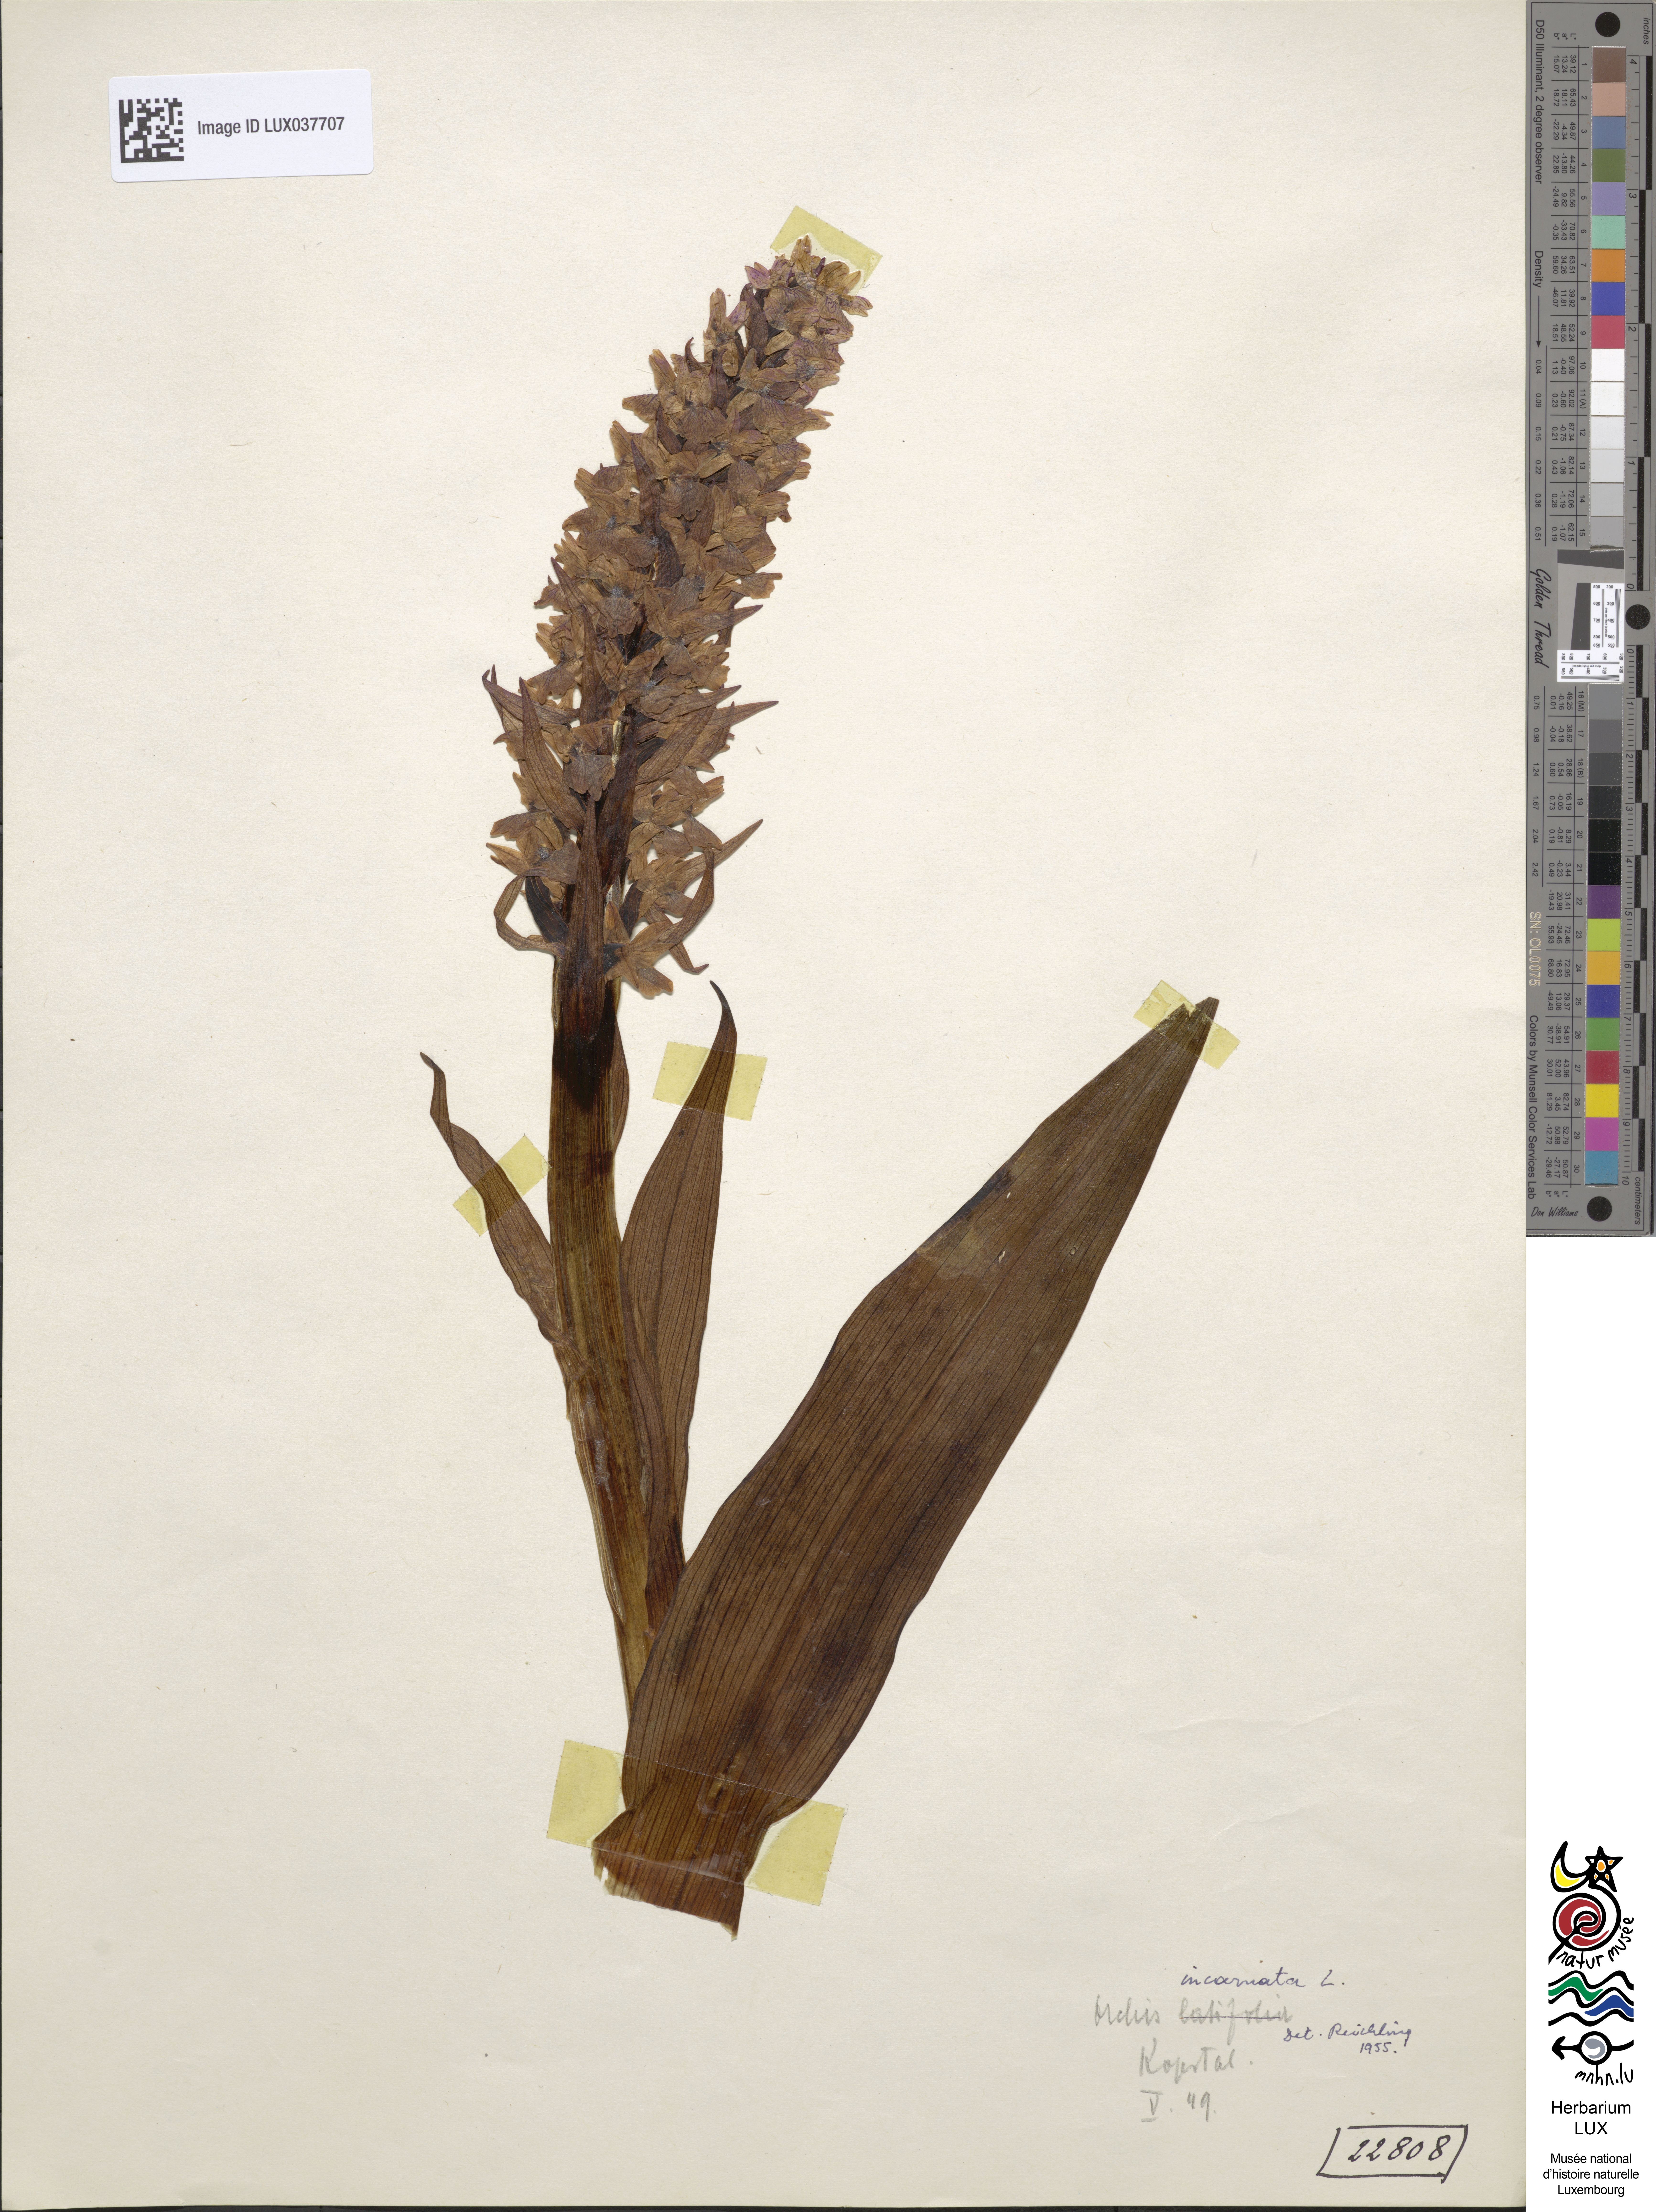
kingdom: Plantae
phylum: Tracheophyta
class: Liliopsida
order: Asparagales
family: Orchidaceae
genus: Dactylorhiza
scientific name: Dactylorhiza incarnata
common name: Early marsh-orchid
